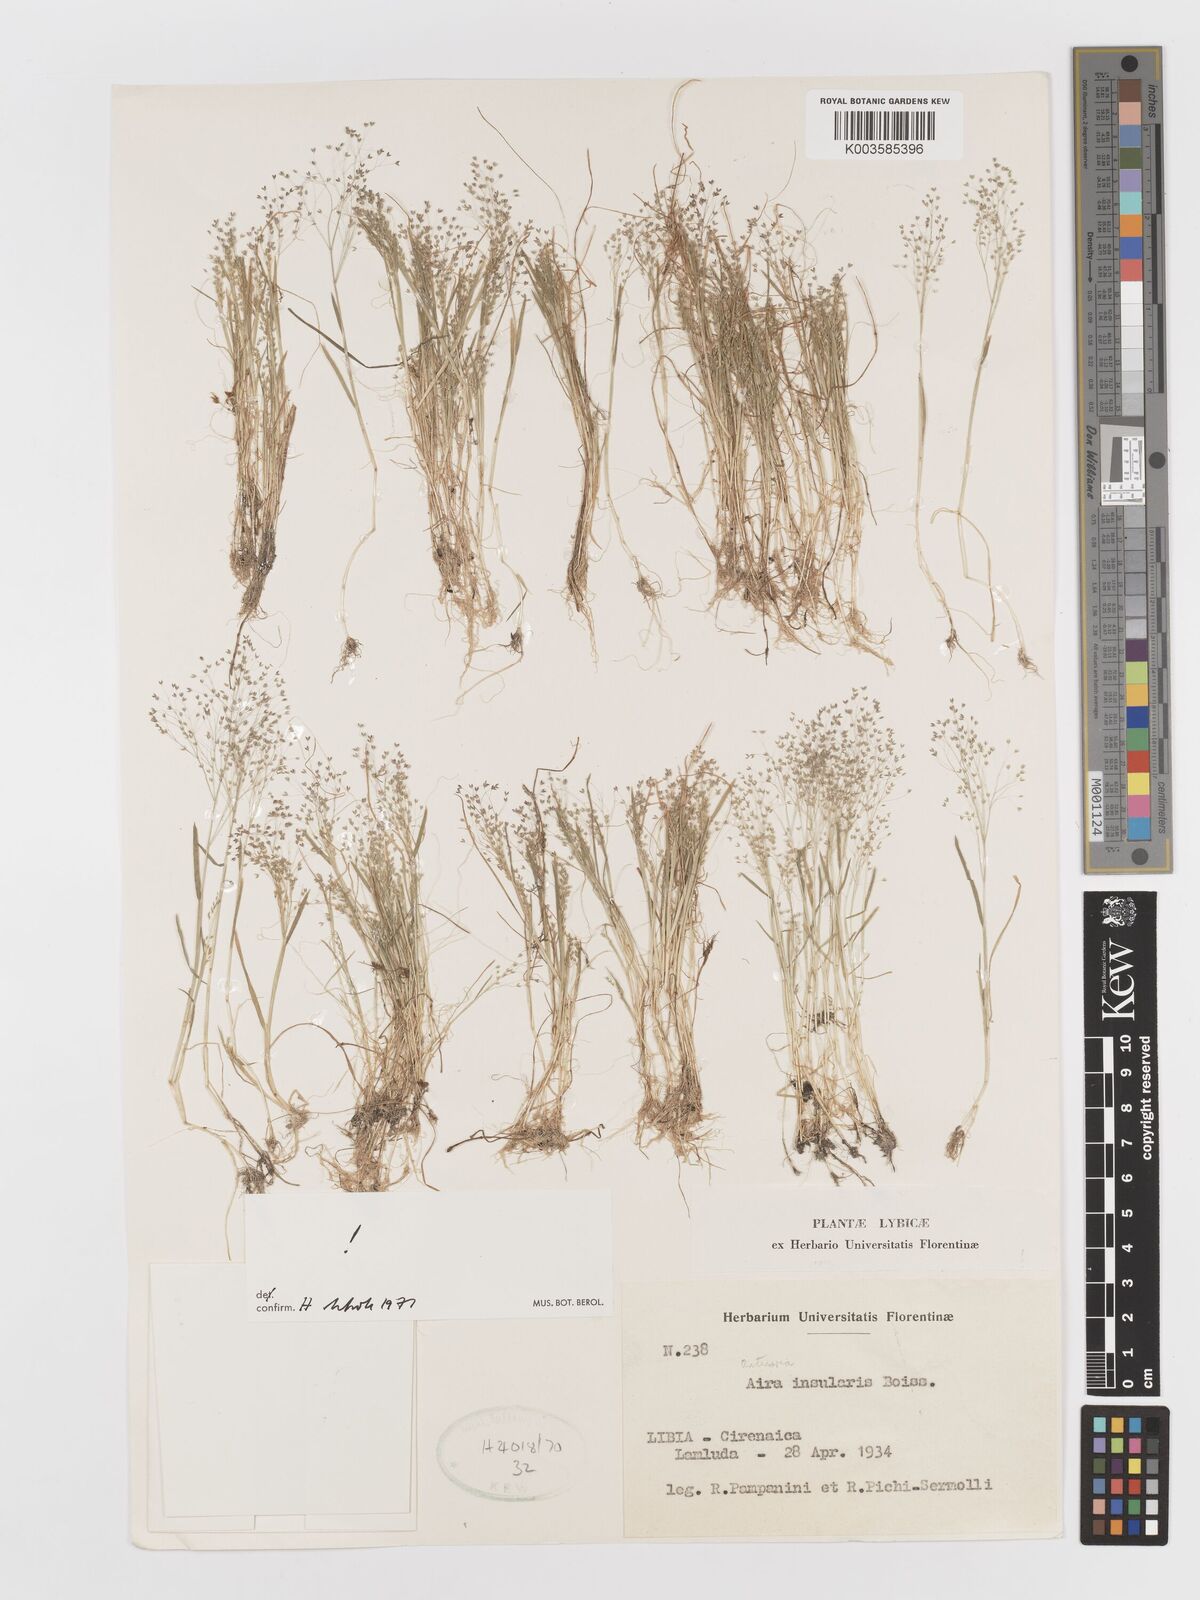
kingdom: Plantae
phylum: Tracheophyta
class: Liliopsida
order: Poales
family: Poaceae
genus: Antinoria
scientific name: Antinoria insularis
